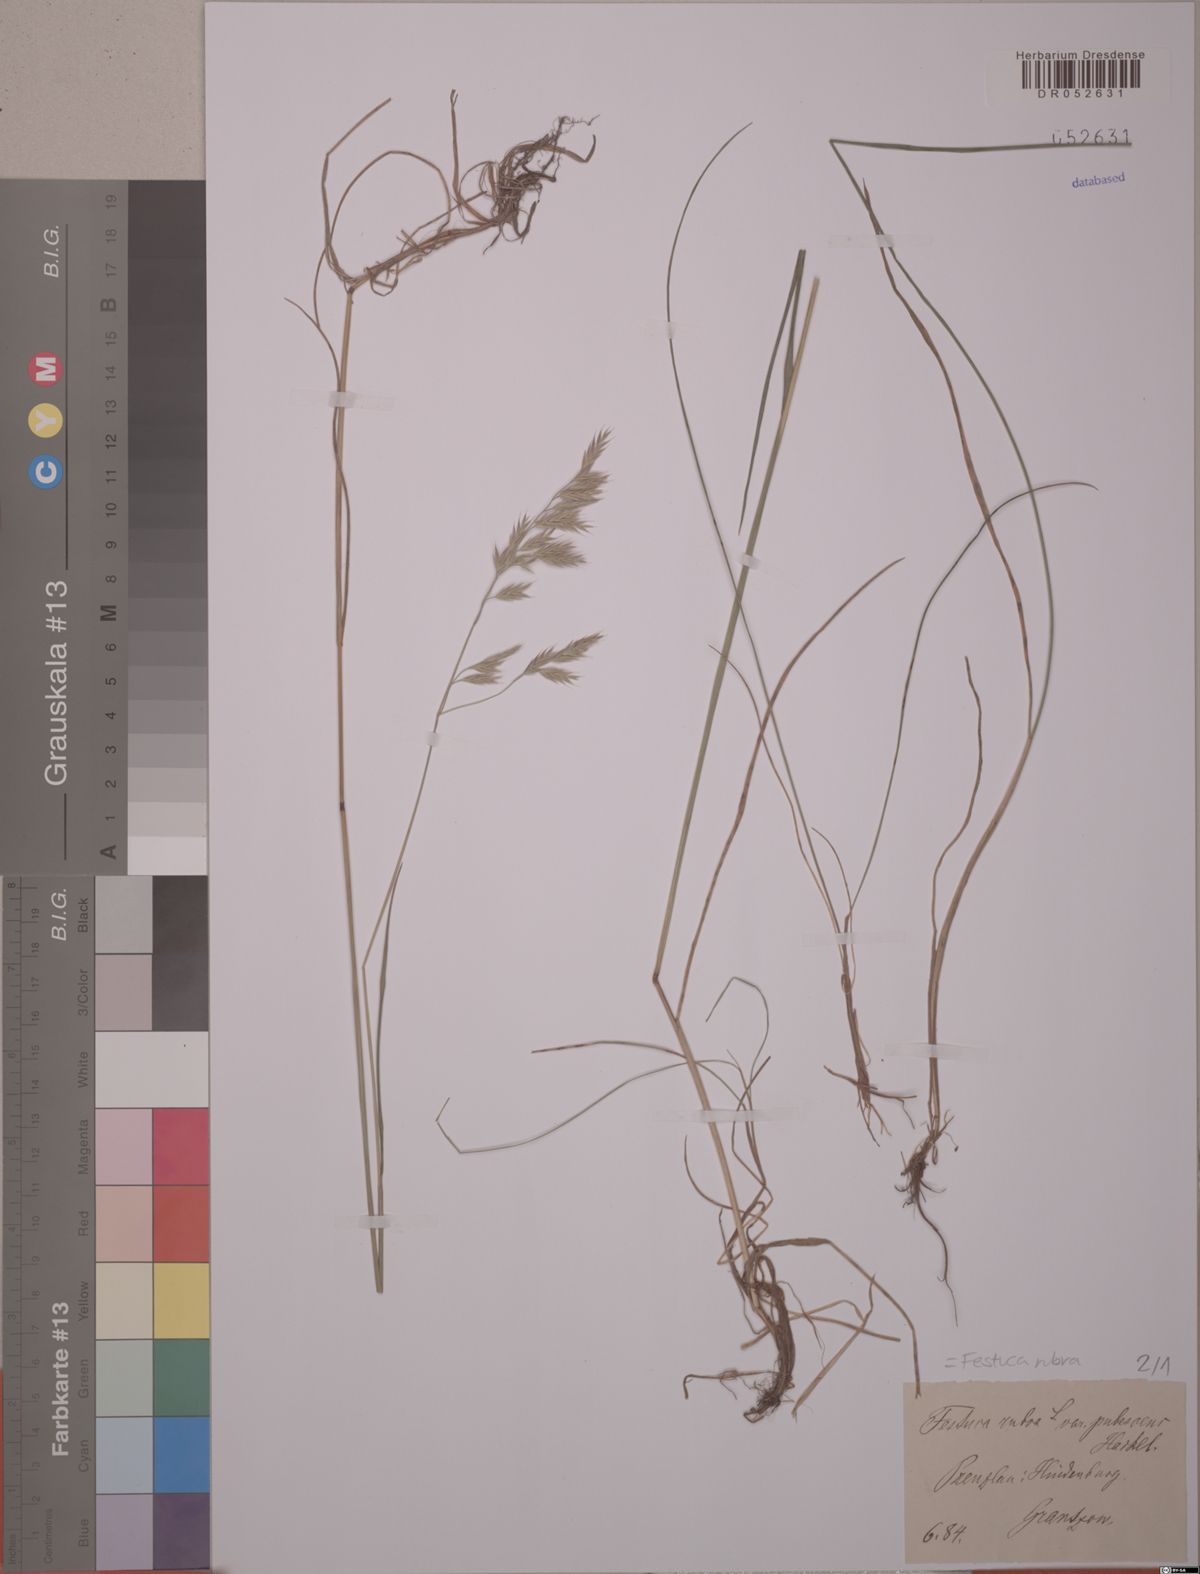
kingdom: Plantae
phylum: Tracheophyta
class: Liliopsida
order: Poales
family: Poaceae
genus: Festuca
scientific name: Festuca rubra
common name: Red fescue
